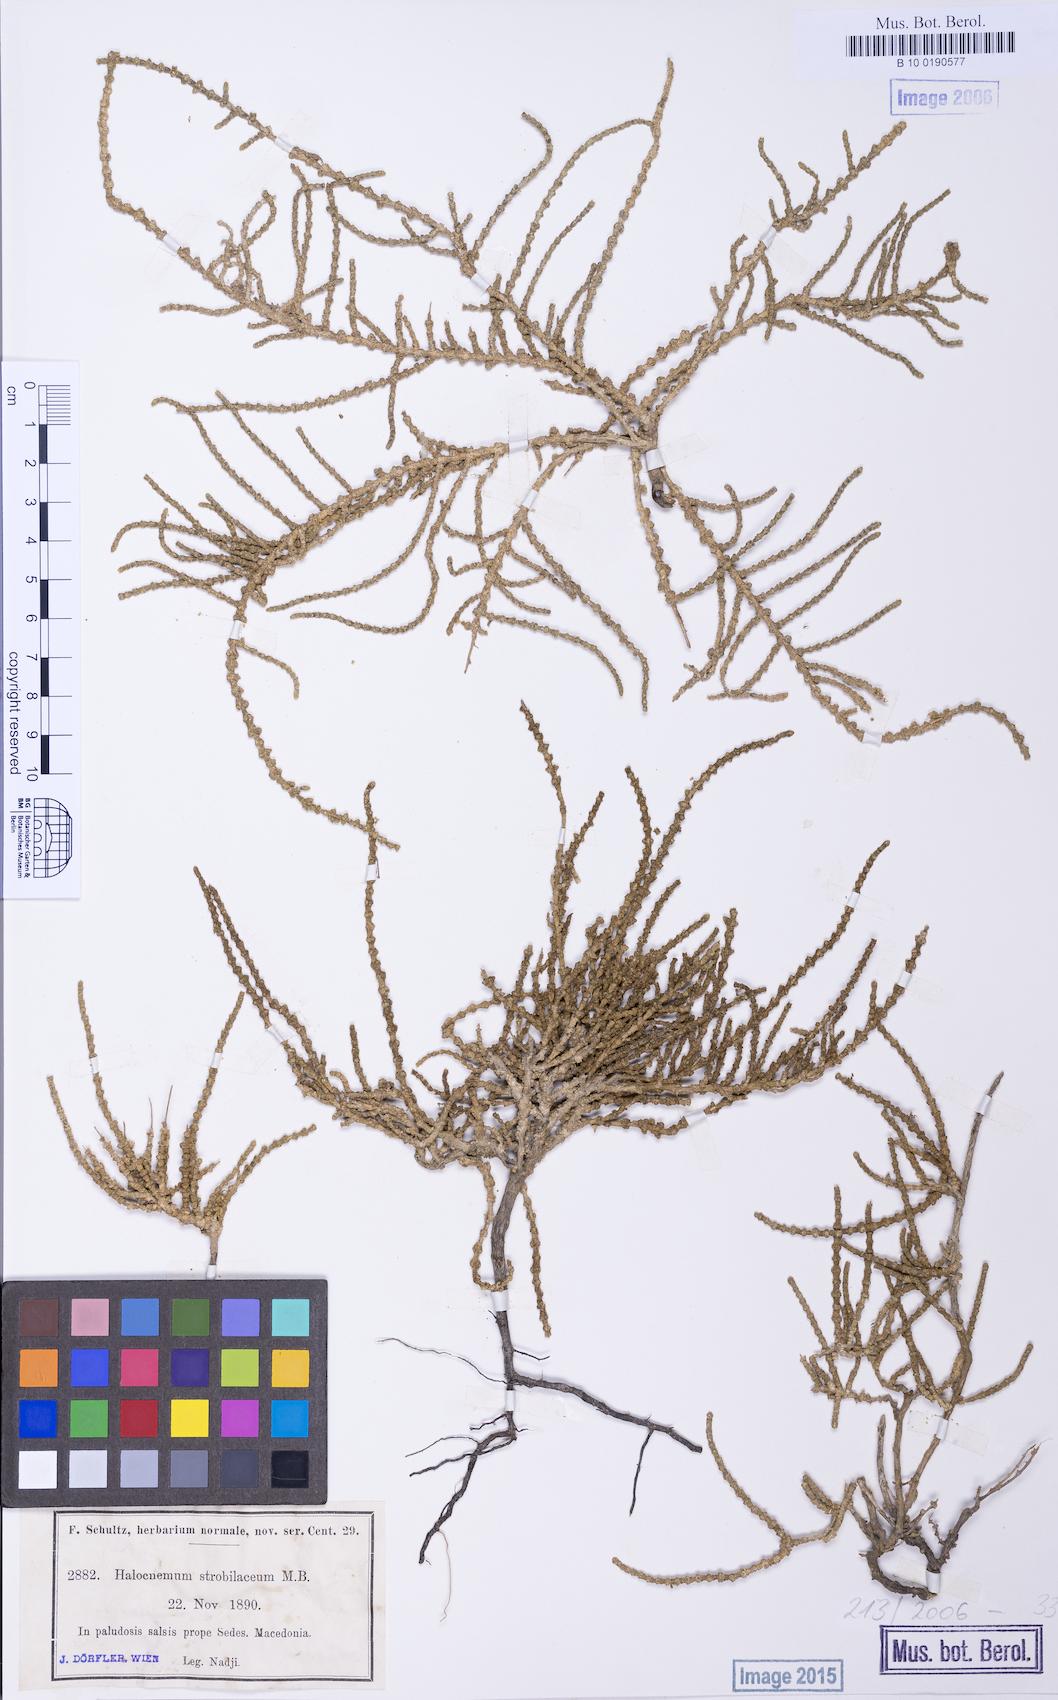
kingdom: Plantae
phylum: Tracheophyta
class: Magnoliopsida
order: Caryophyllales
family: Amaranthaceae
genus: Halocnemum
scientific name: Halocnemum strobilaceum
